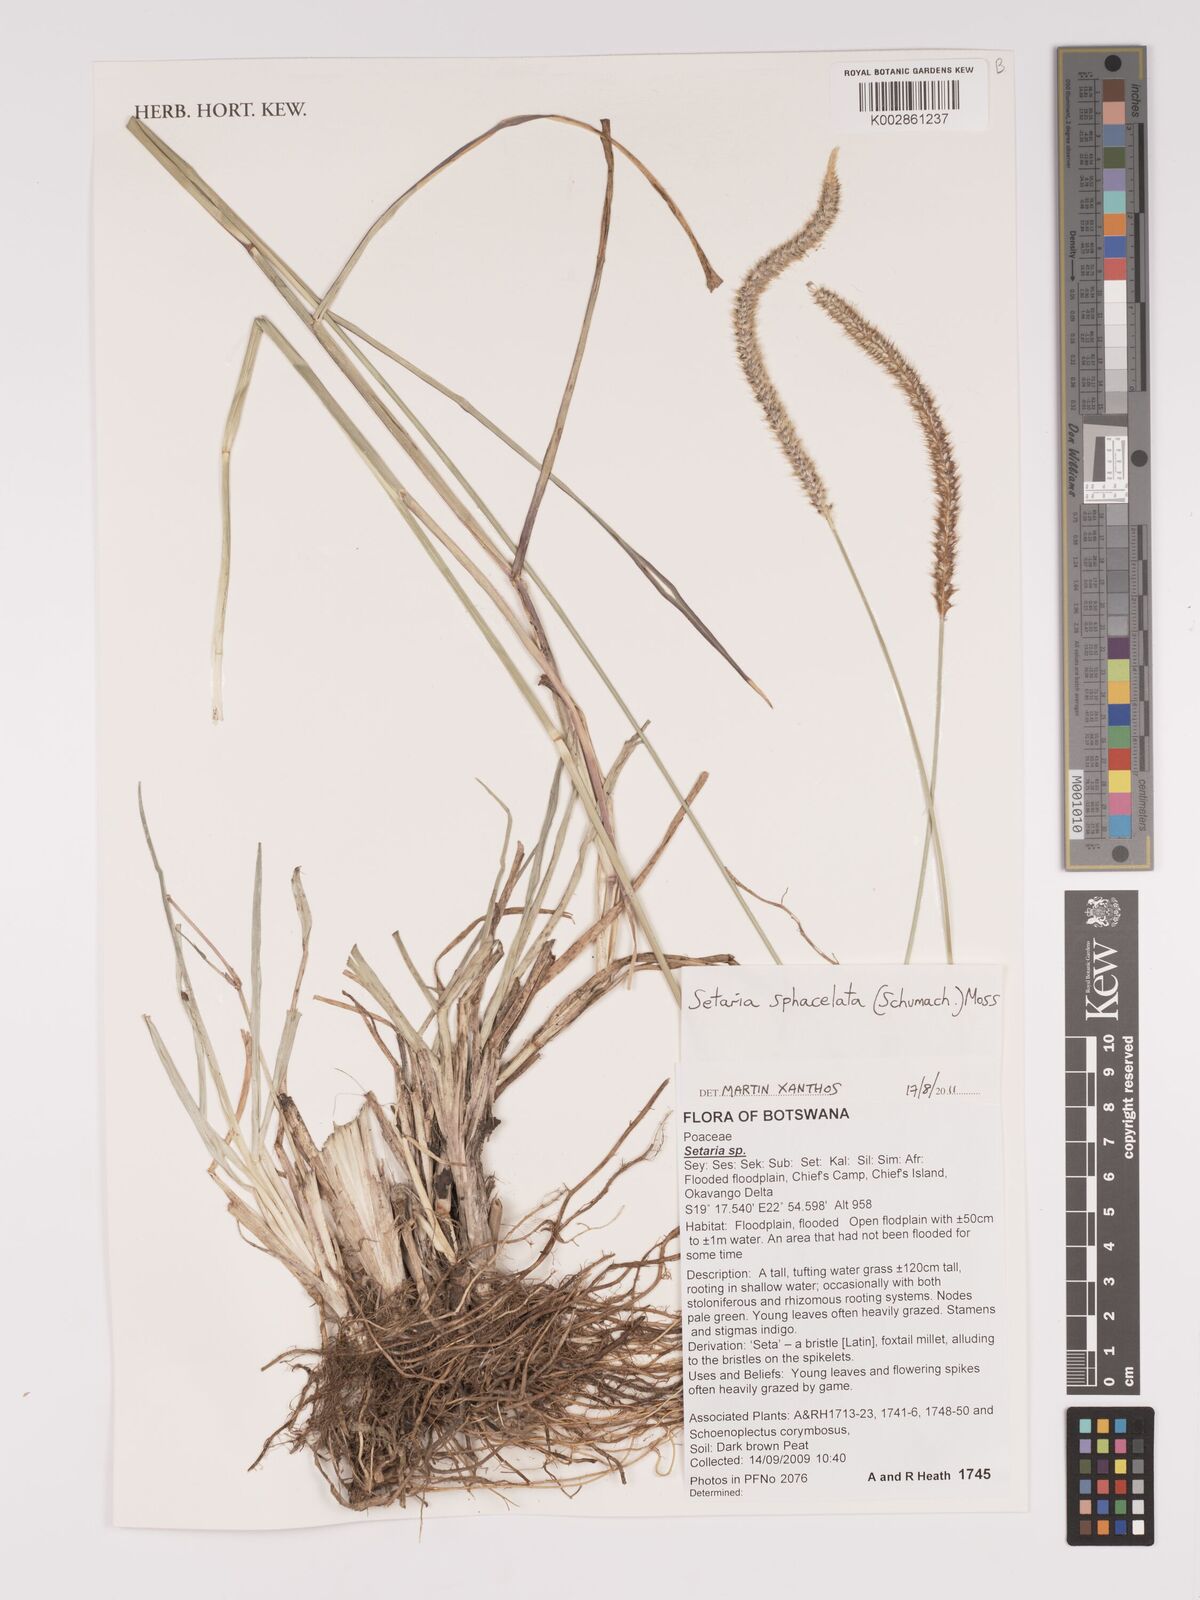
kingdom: Plantae
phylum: Tracheophyta
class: Liliopsida
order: Poales
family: Poaceae
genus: Setaria
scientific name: Setaria sphacelata
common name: African bristlegrass
